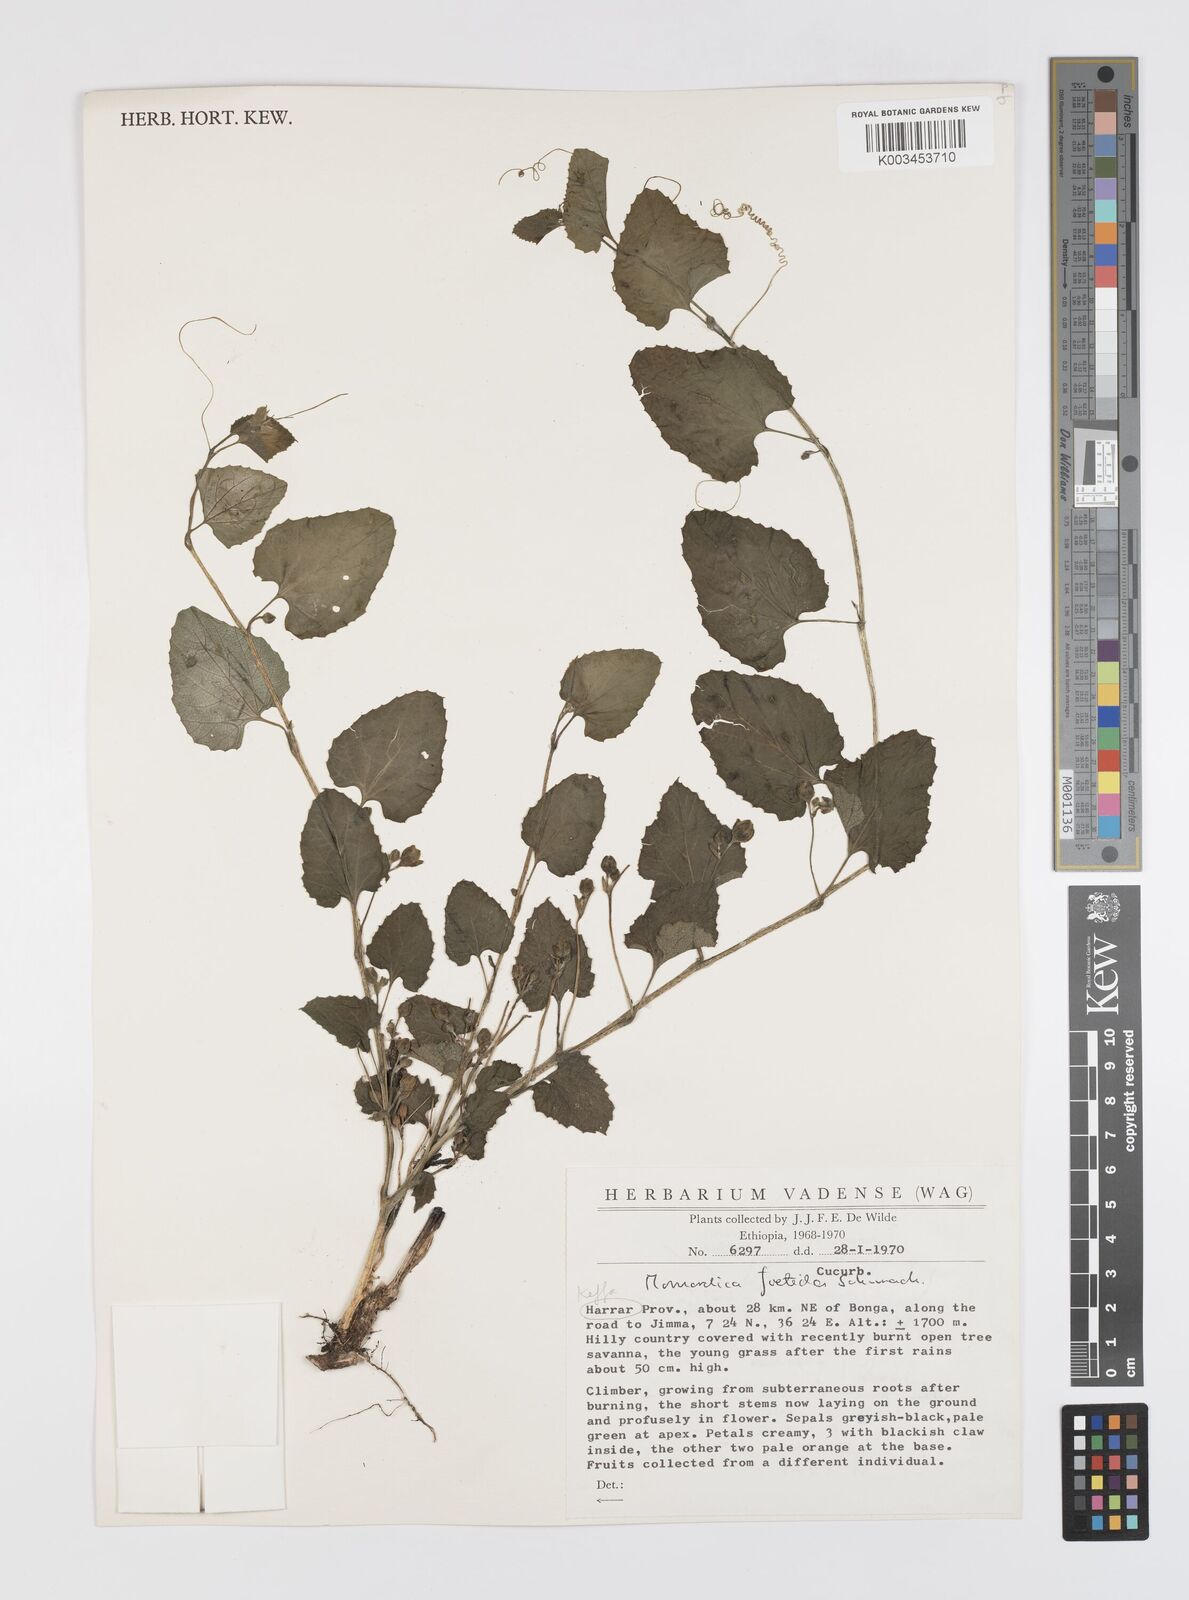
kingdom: Plantae
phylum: Tracheophyta
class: Magnoliopsida
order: Cucurbitales
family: Cucurbitaceae
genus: Momordica
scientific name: Momordica foetida
